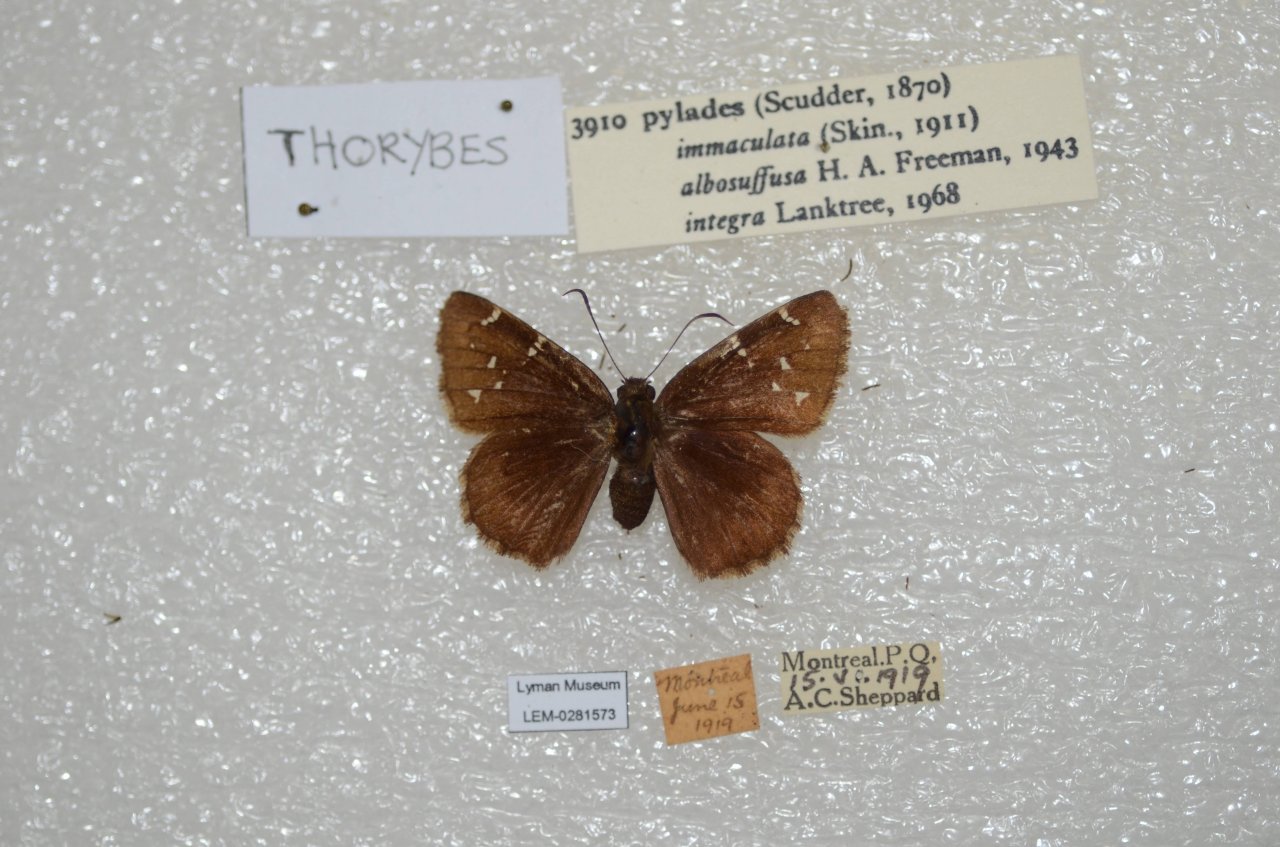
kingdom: Animalia
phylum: Arthropoda
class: Insecta
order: Lepidoptera
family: Hesperiidae
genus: Autochton
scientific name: Autochton
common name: Northern Cloudywing
